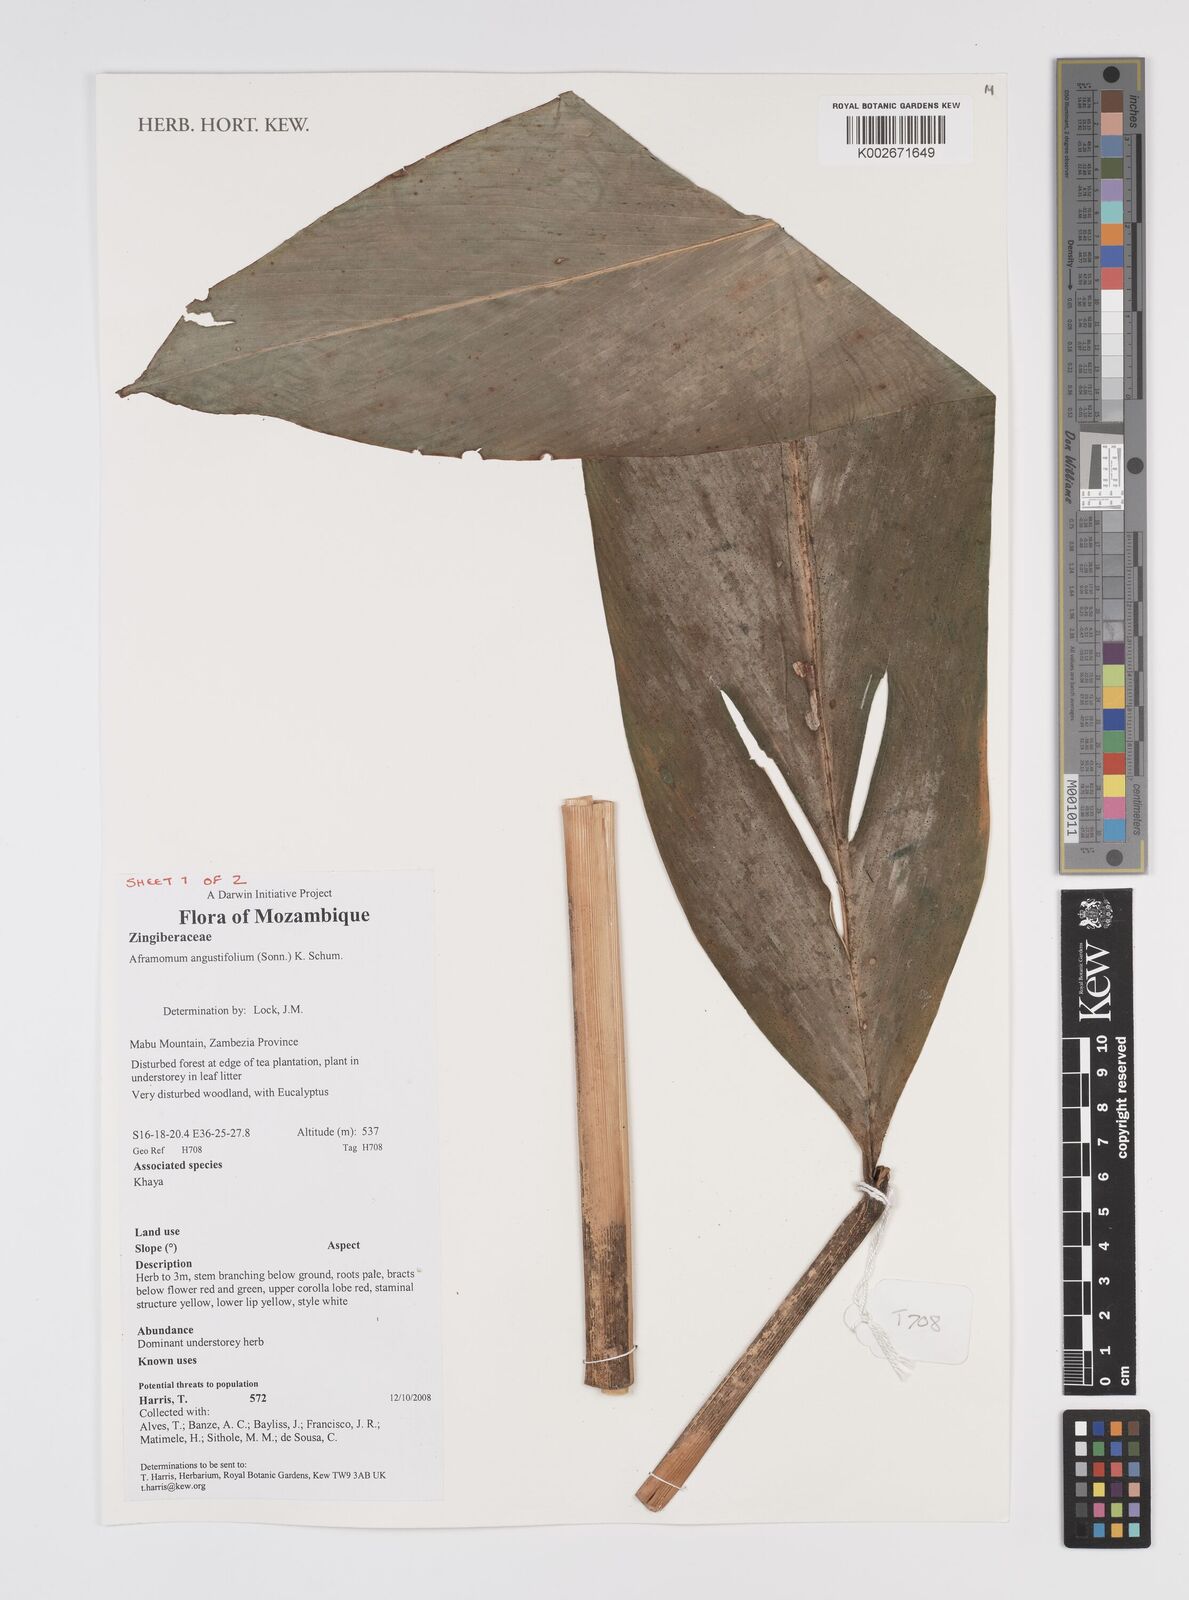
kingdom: Plantae
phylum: Tracheophyta
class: Liliopsida
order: Zingiberales
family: Zingiberaceae
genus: Aframomum
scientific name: Aframomum angustifolium
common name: Guinea grains
